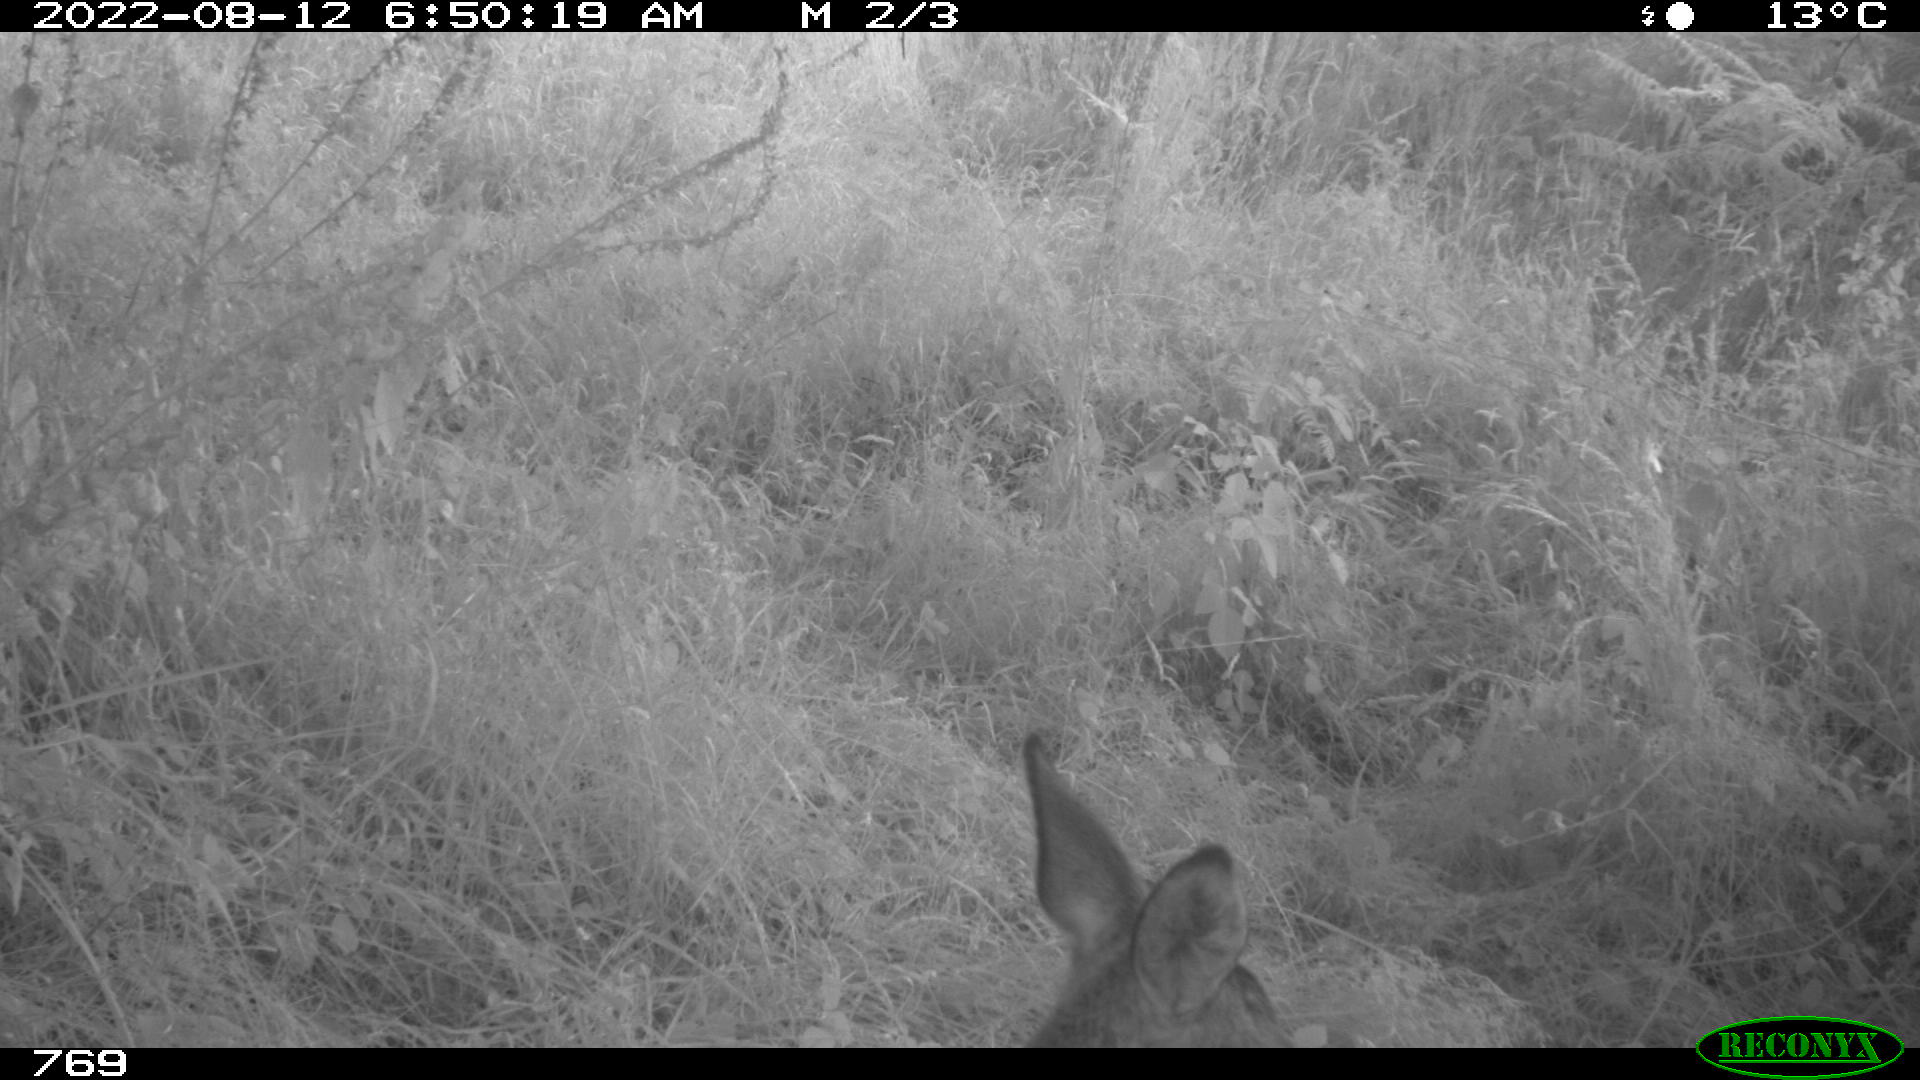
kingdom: Animalia
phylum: Chordata
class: Mammalia
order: Artiodactyla
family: Cervidae
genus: Capreolus
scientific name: Capreolus capreolus
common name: Western roe deer
